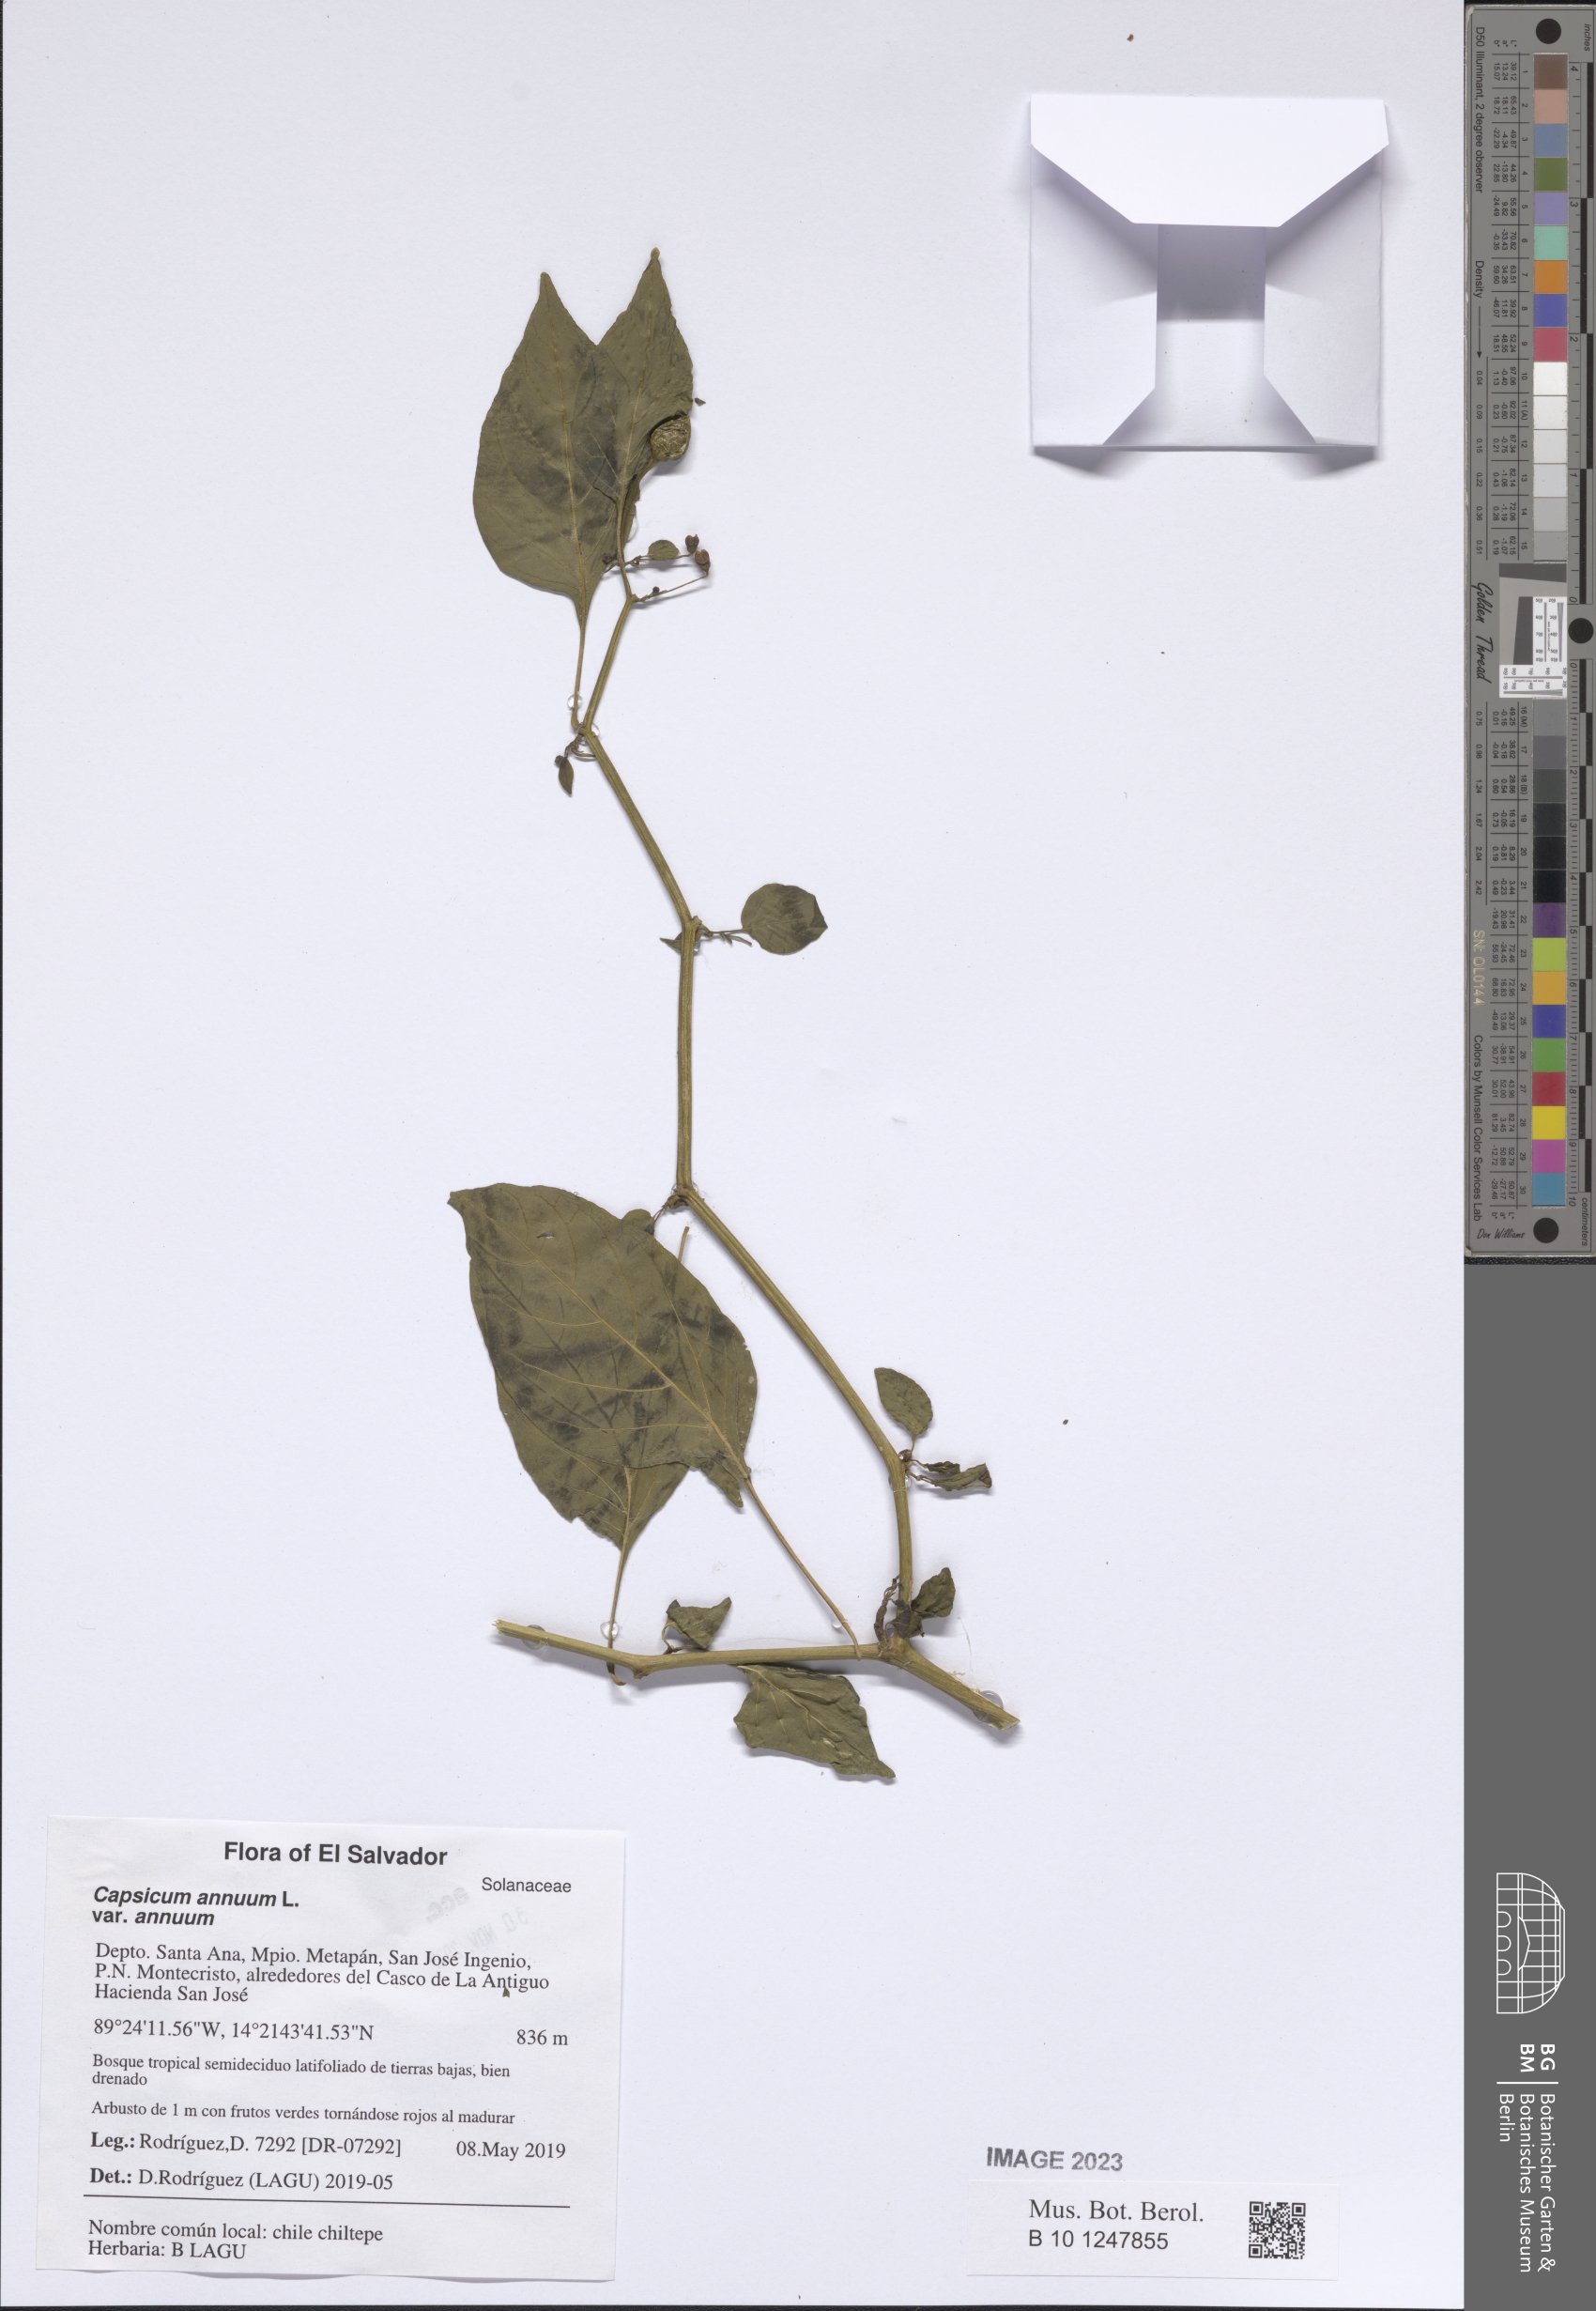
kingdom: Plantae
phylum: Tracheophyta
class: Magnoliopsida
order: Solanales
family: Solanaceae
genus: Capsicum
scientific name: Capsicum annuum
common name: Sweet pepper
